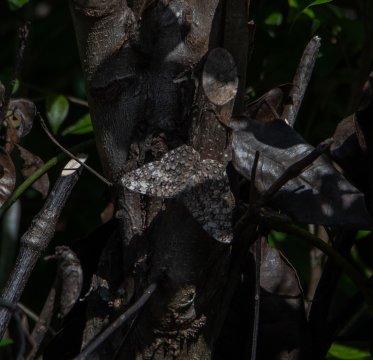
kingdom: Animalia
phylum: Arthropoda
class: Insecta
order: Lepidoptera
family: Nymphalidae
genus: Hamadryas
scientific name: Hamadryas februa
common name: Gray Cracker
